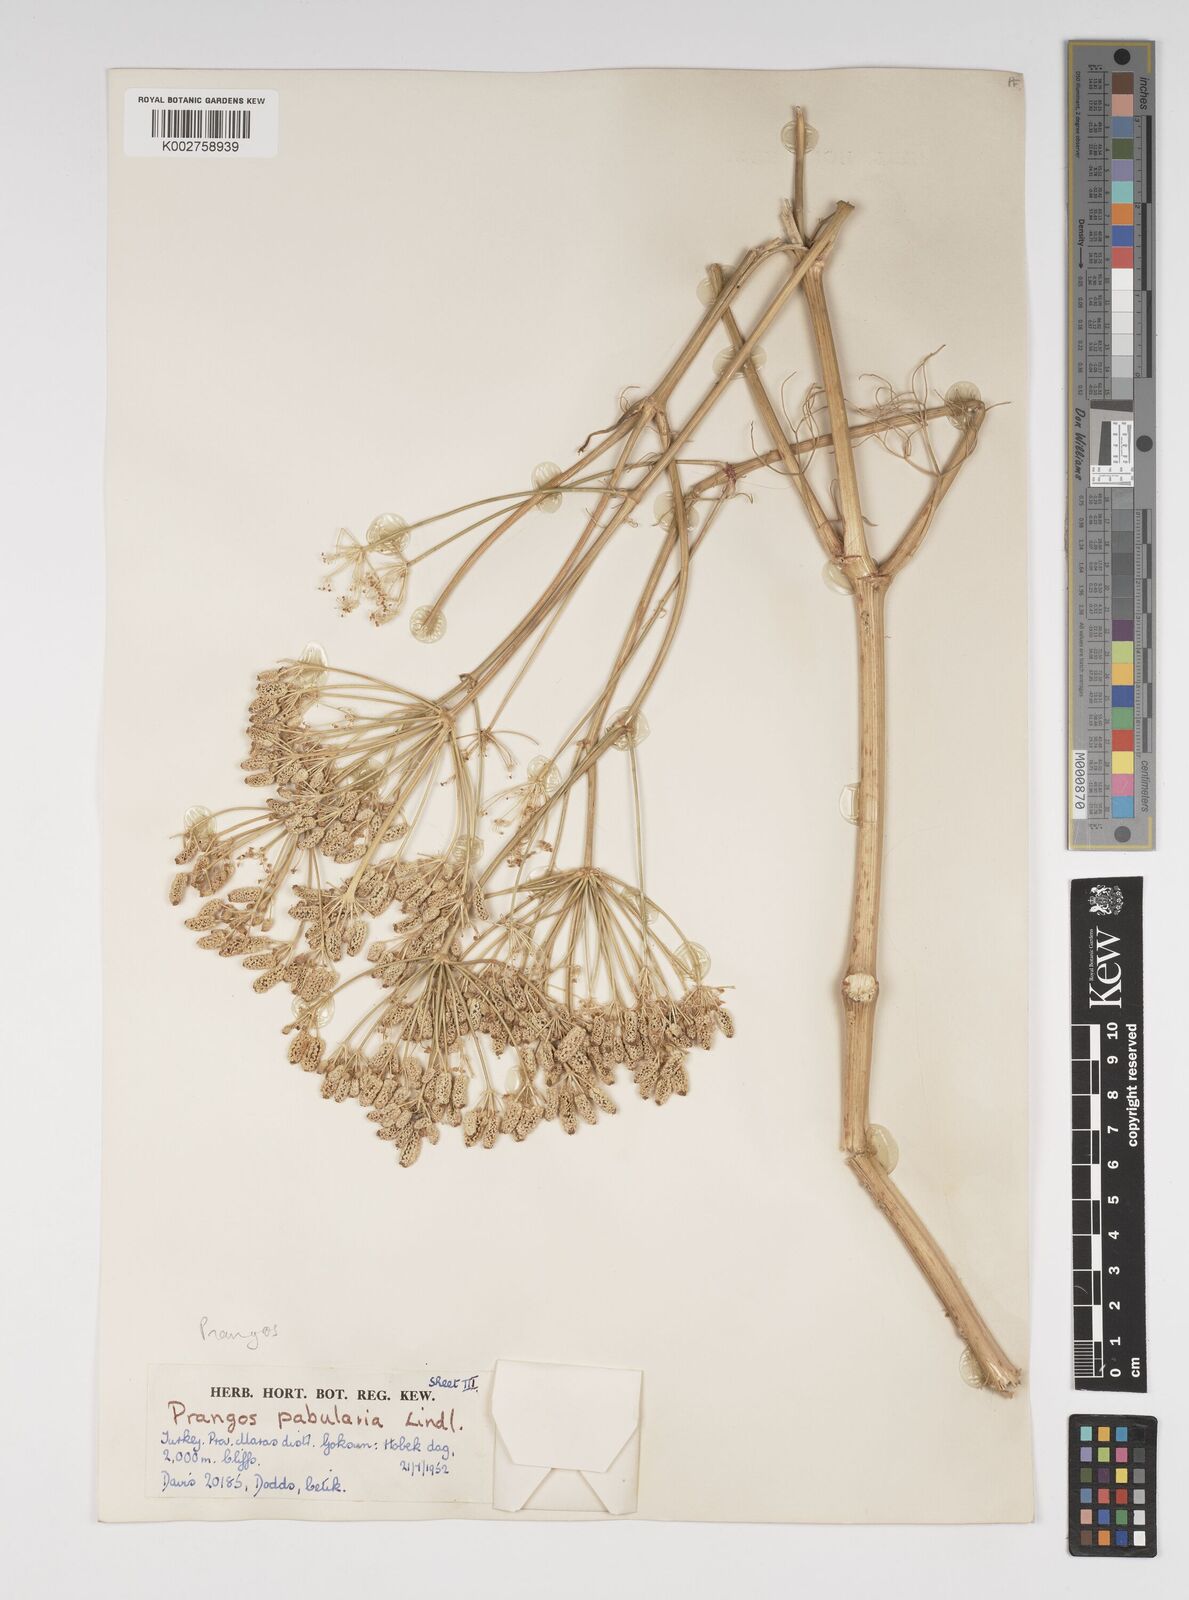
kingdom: Plantae
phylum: Tracheophyta
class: Magnoliopsida
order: Apiales
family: Apiaceae
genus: Prangos
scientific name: Prangos pabularia
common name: Yugan
